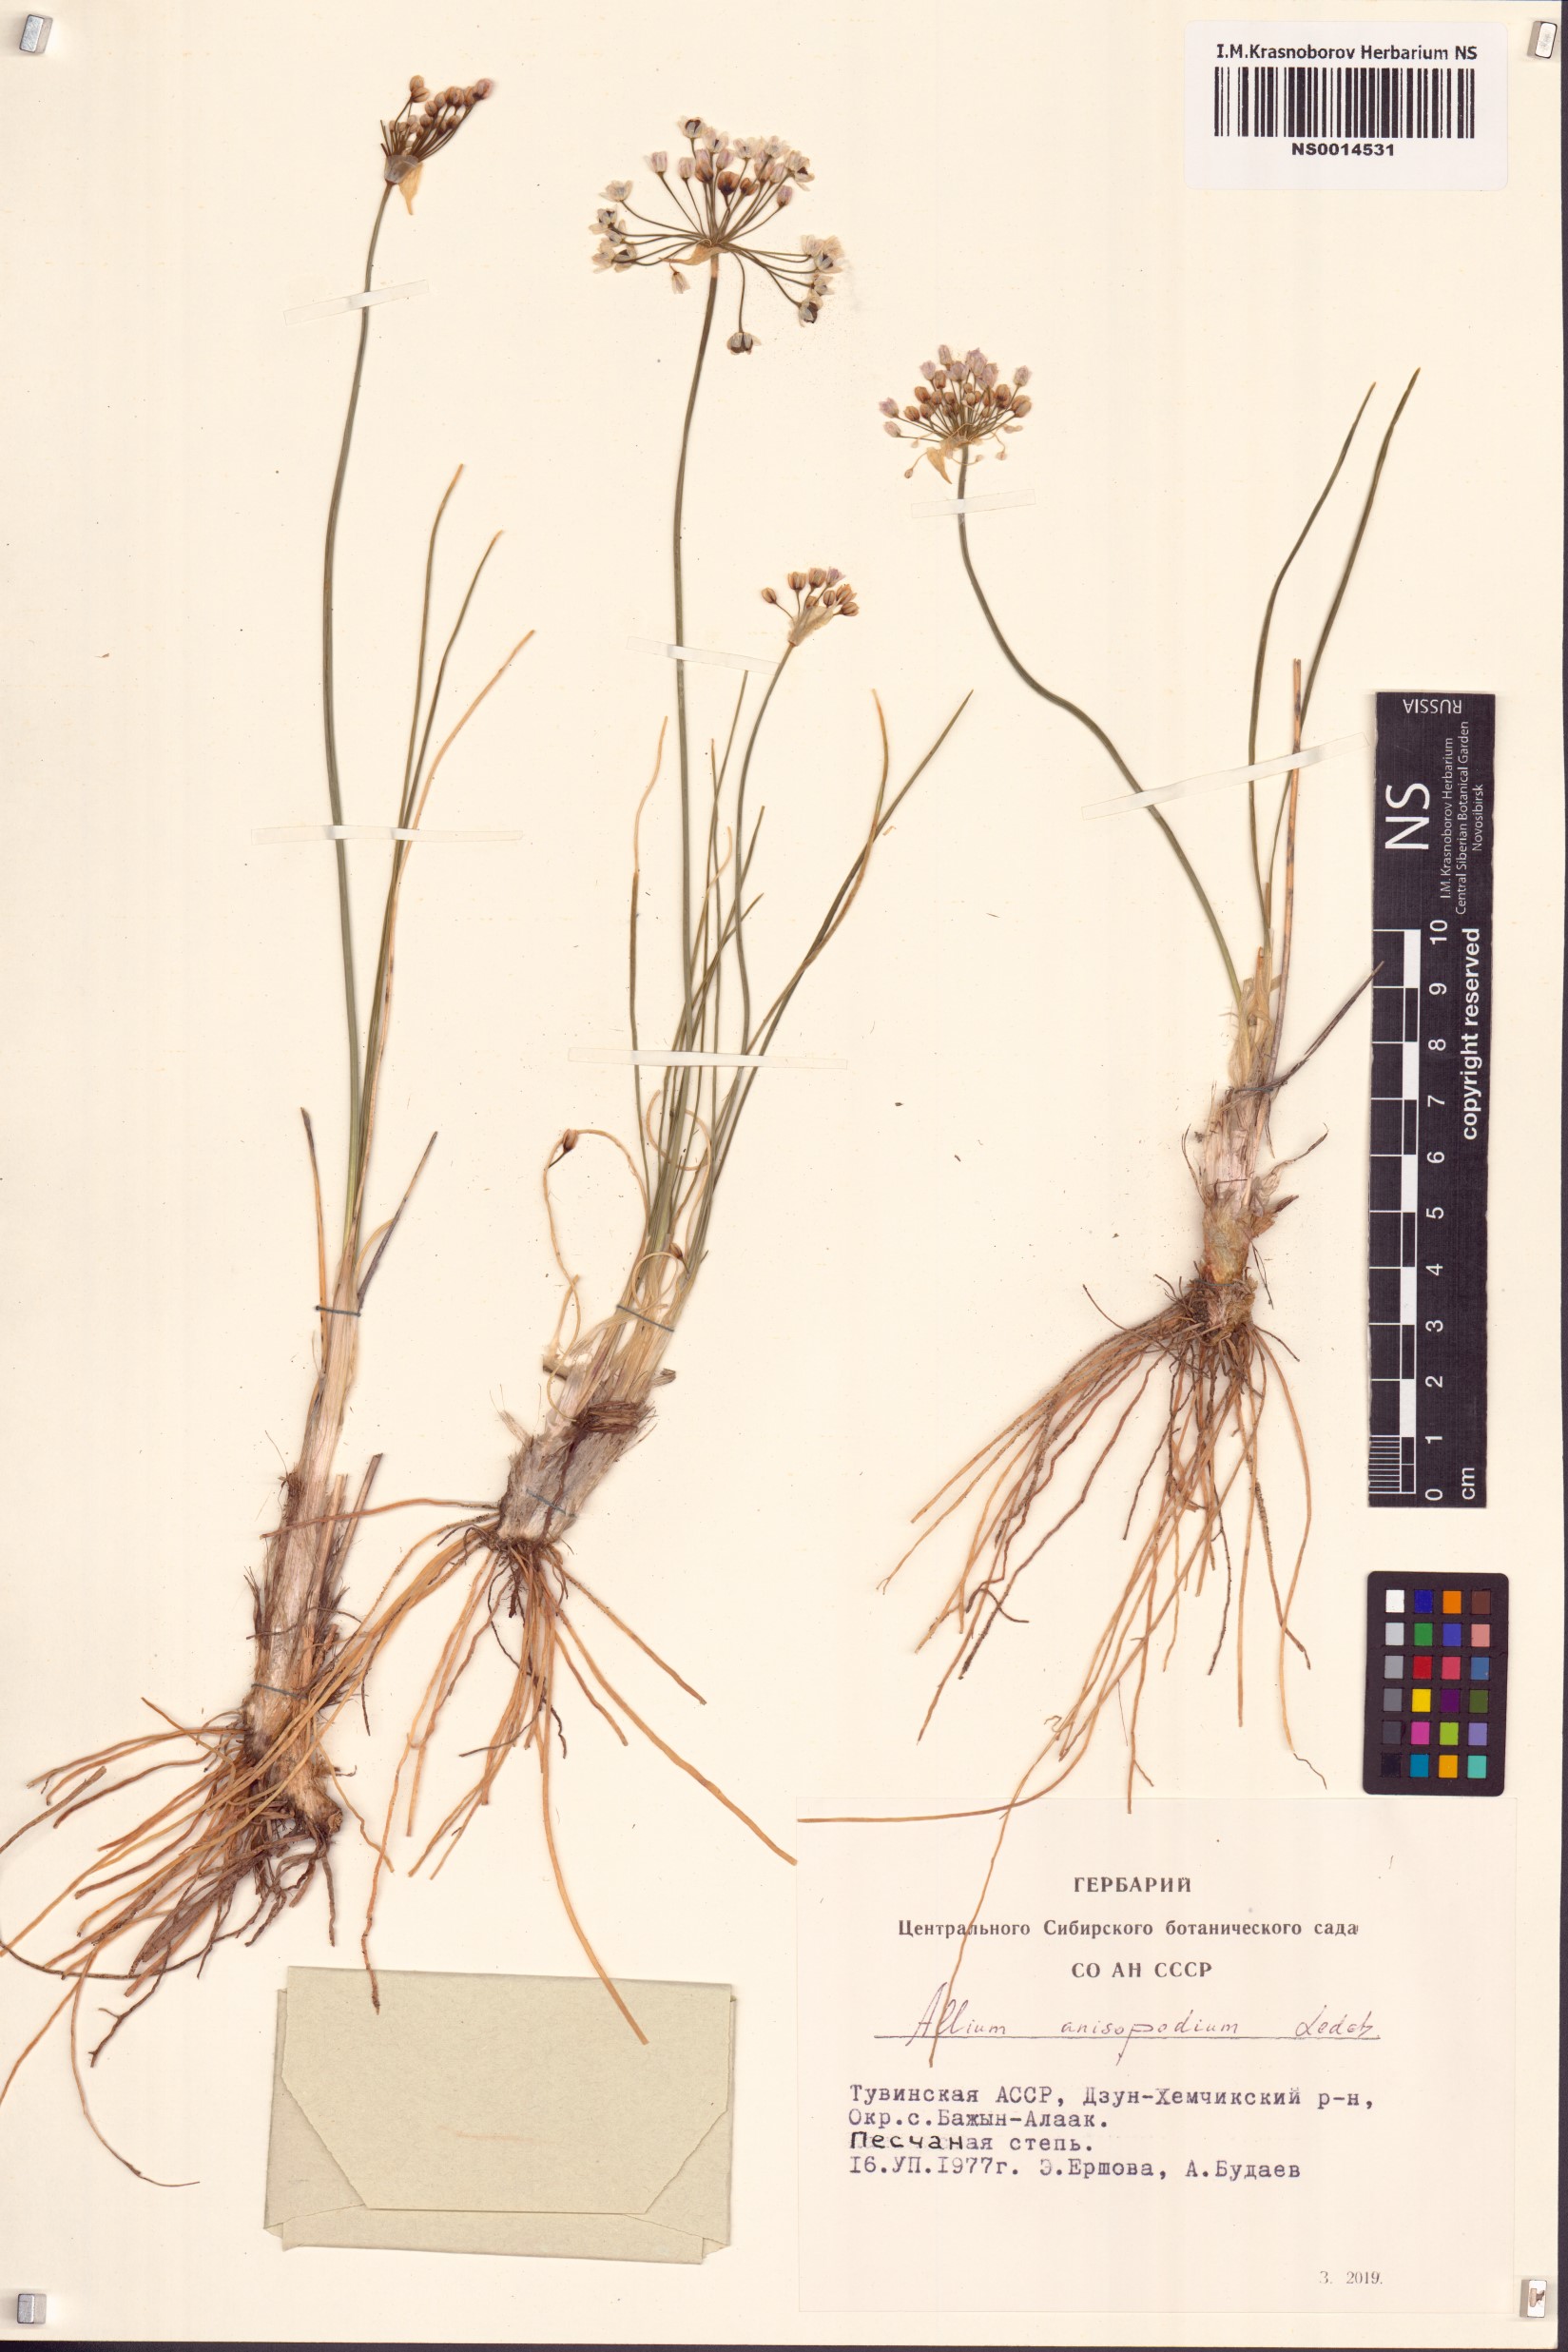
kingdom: Plantae
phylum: Tracheophyta
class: Liliopsida
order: Asparagales
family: Amaryllidaceae
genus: Allium
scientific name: Allium anisopodium
